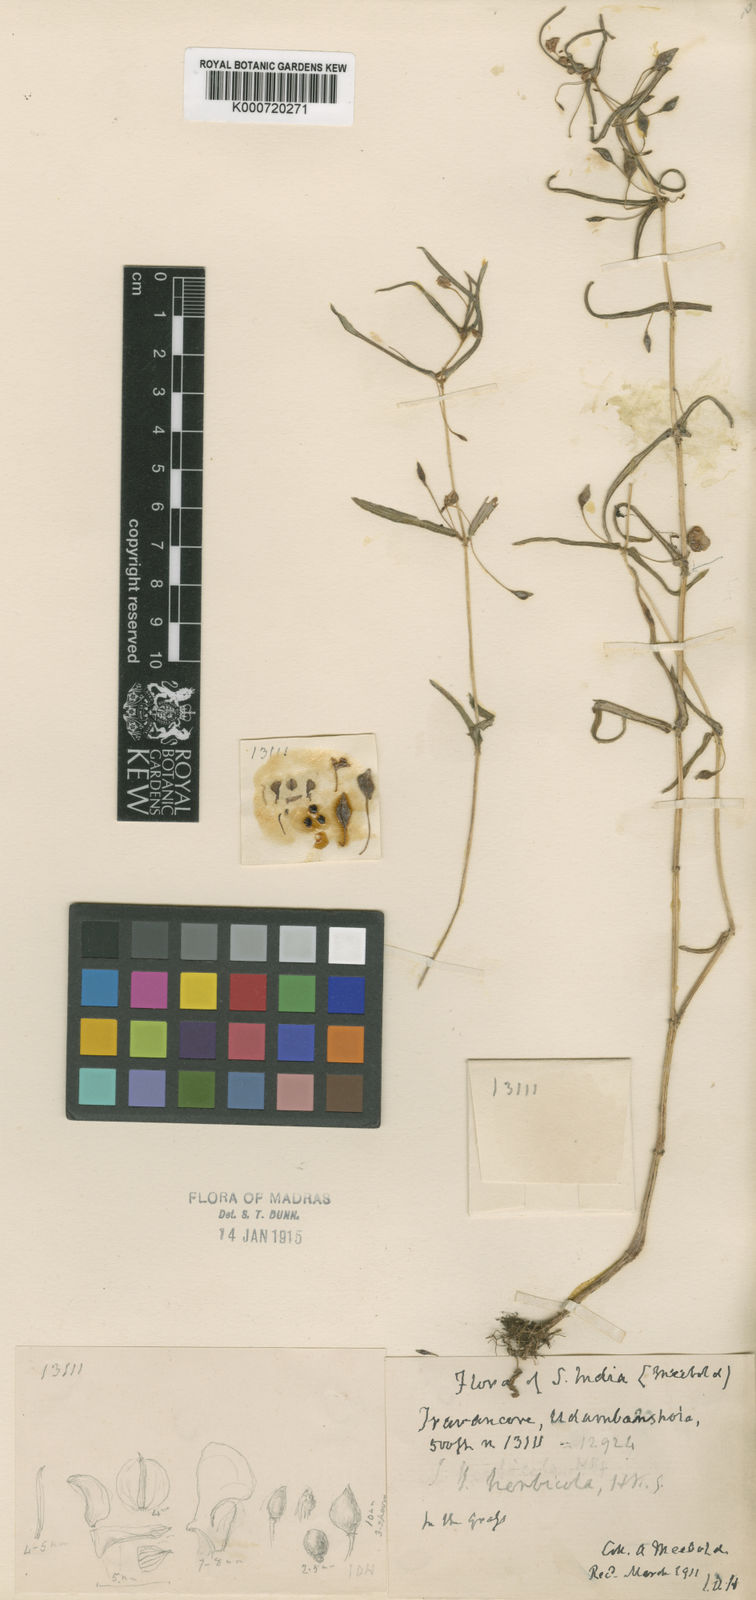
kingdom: Plantae
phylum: Tracheophyta
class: Magnoliopsida
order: Ericales
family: Balsaminaceae
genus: Impatiens
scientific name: Impatiens herbicola
